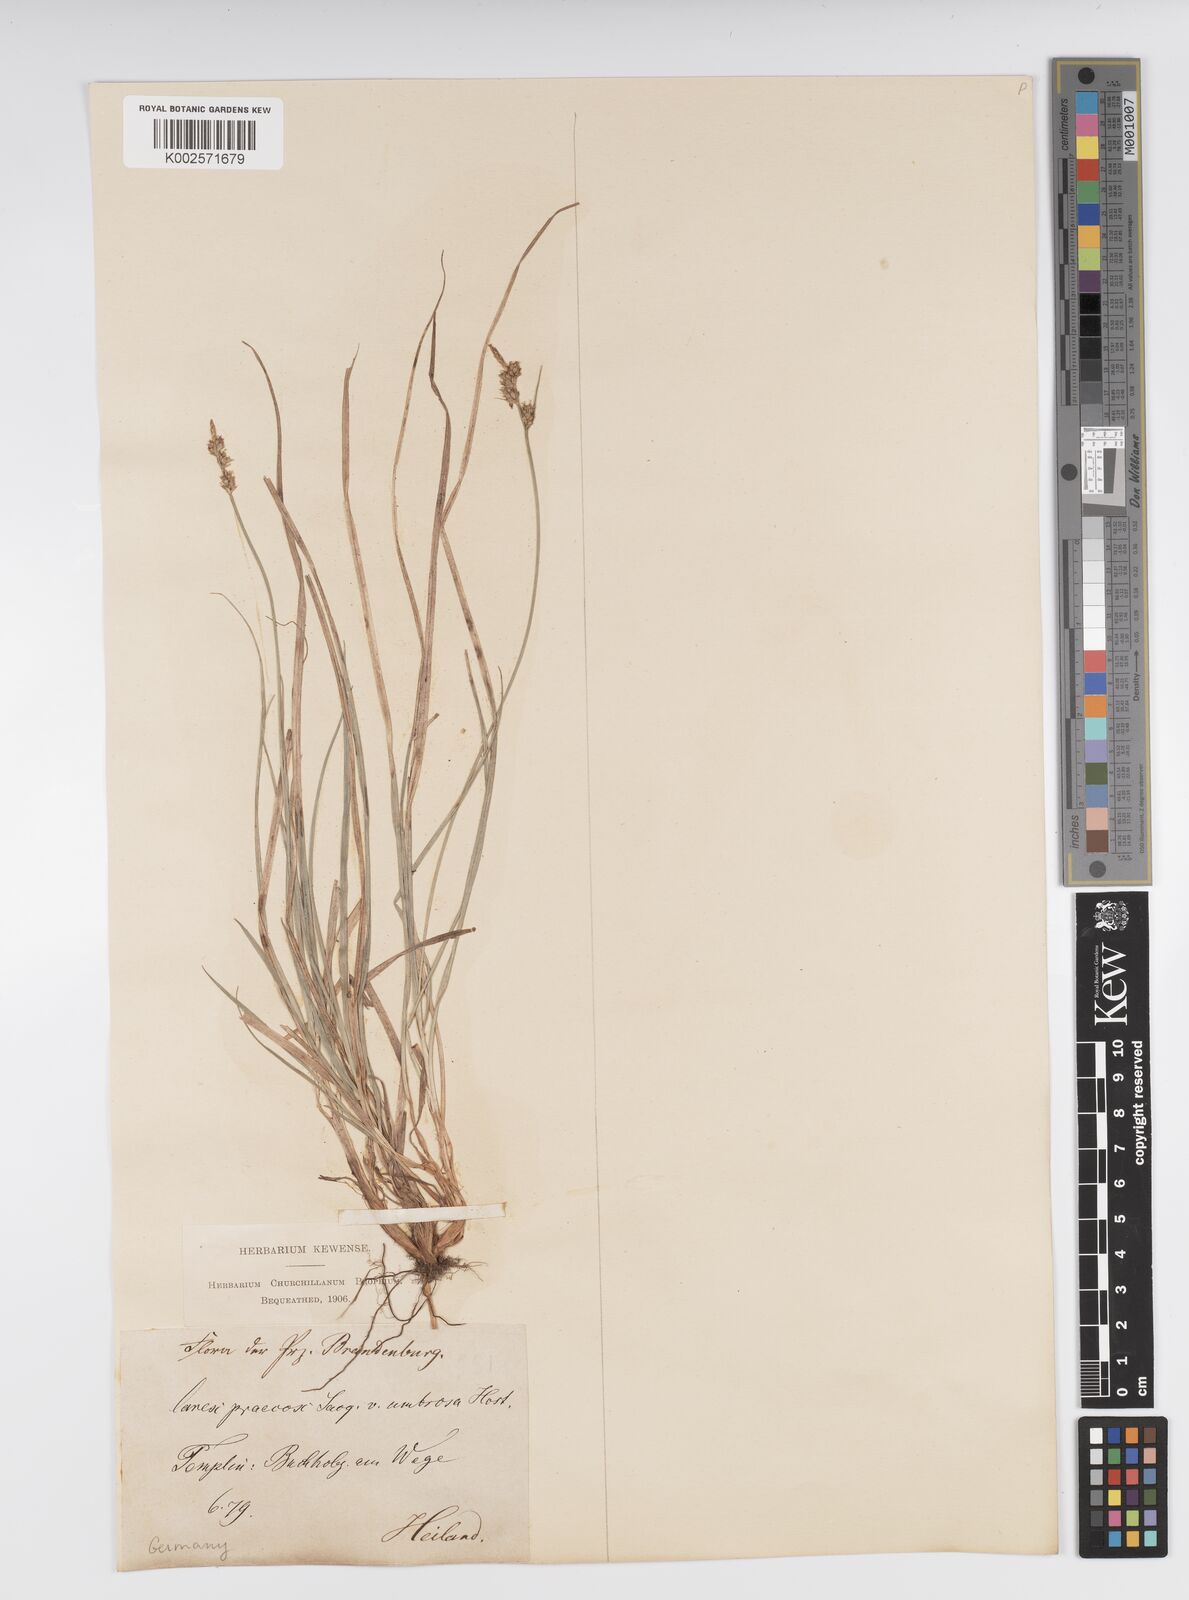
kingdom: Plantae
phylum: Tracheophyta
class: Liliopsida
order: Poales
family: Cyperaceae
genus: Carex
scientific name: Carex caryophyllea
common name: Spring sedge
